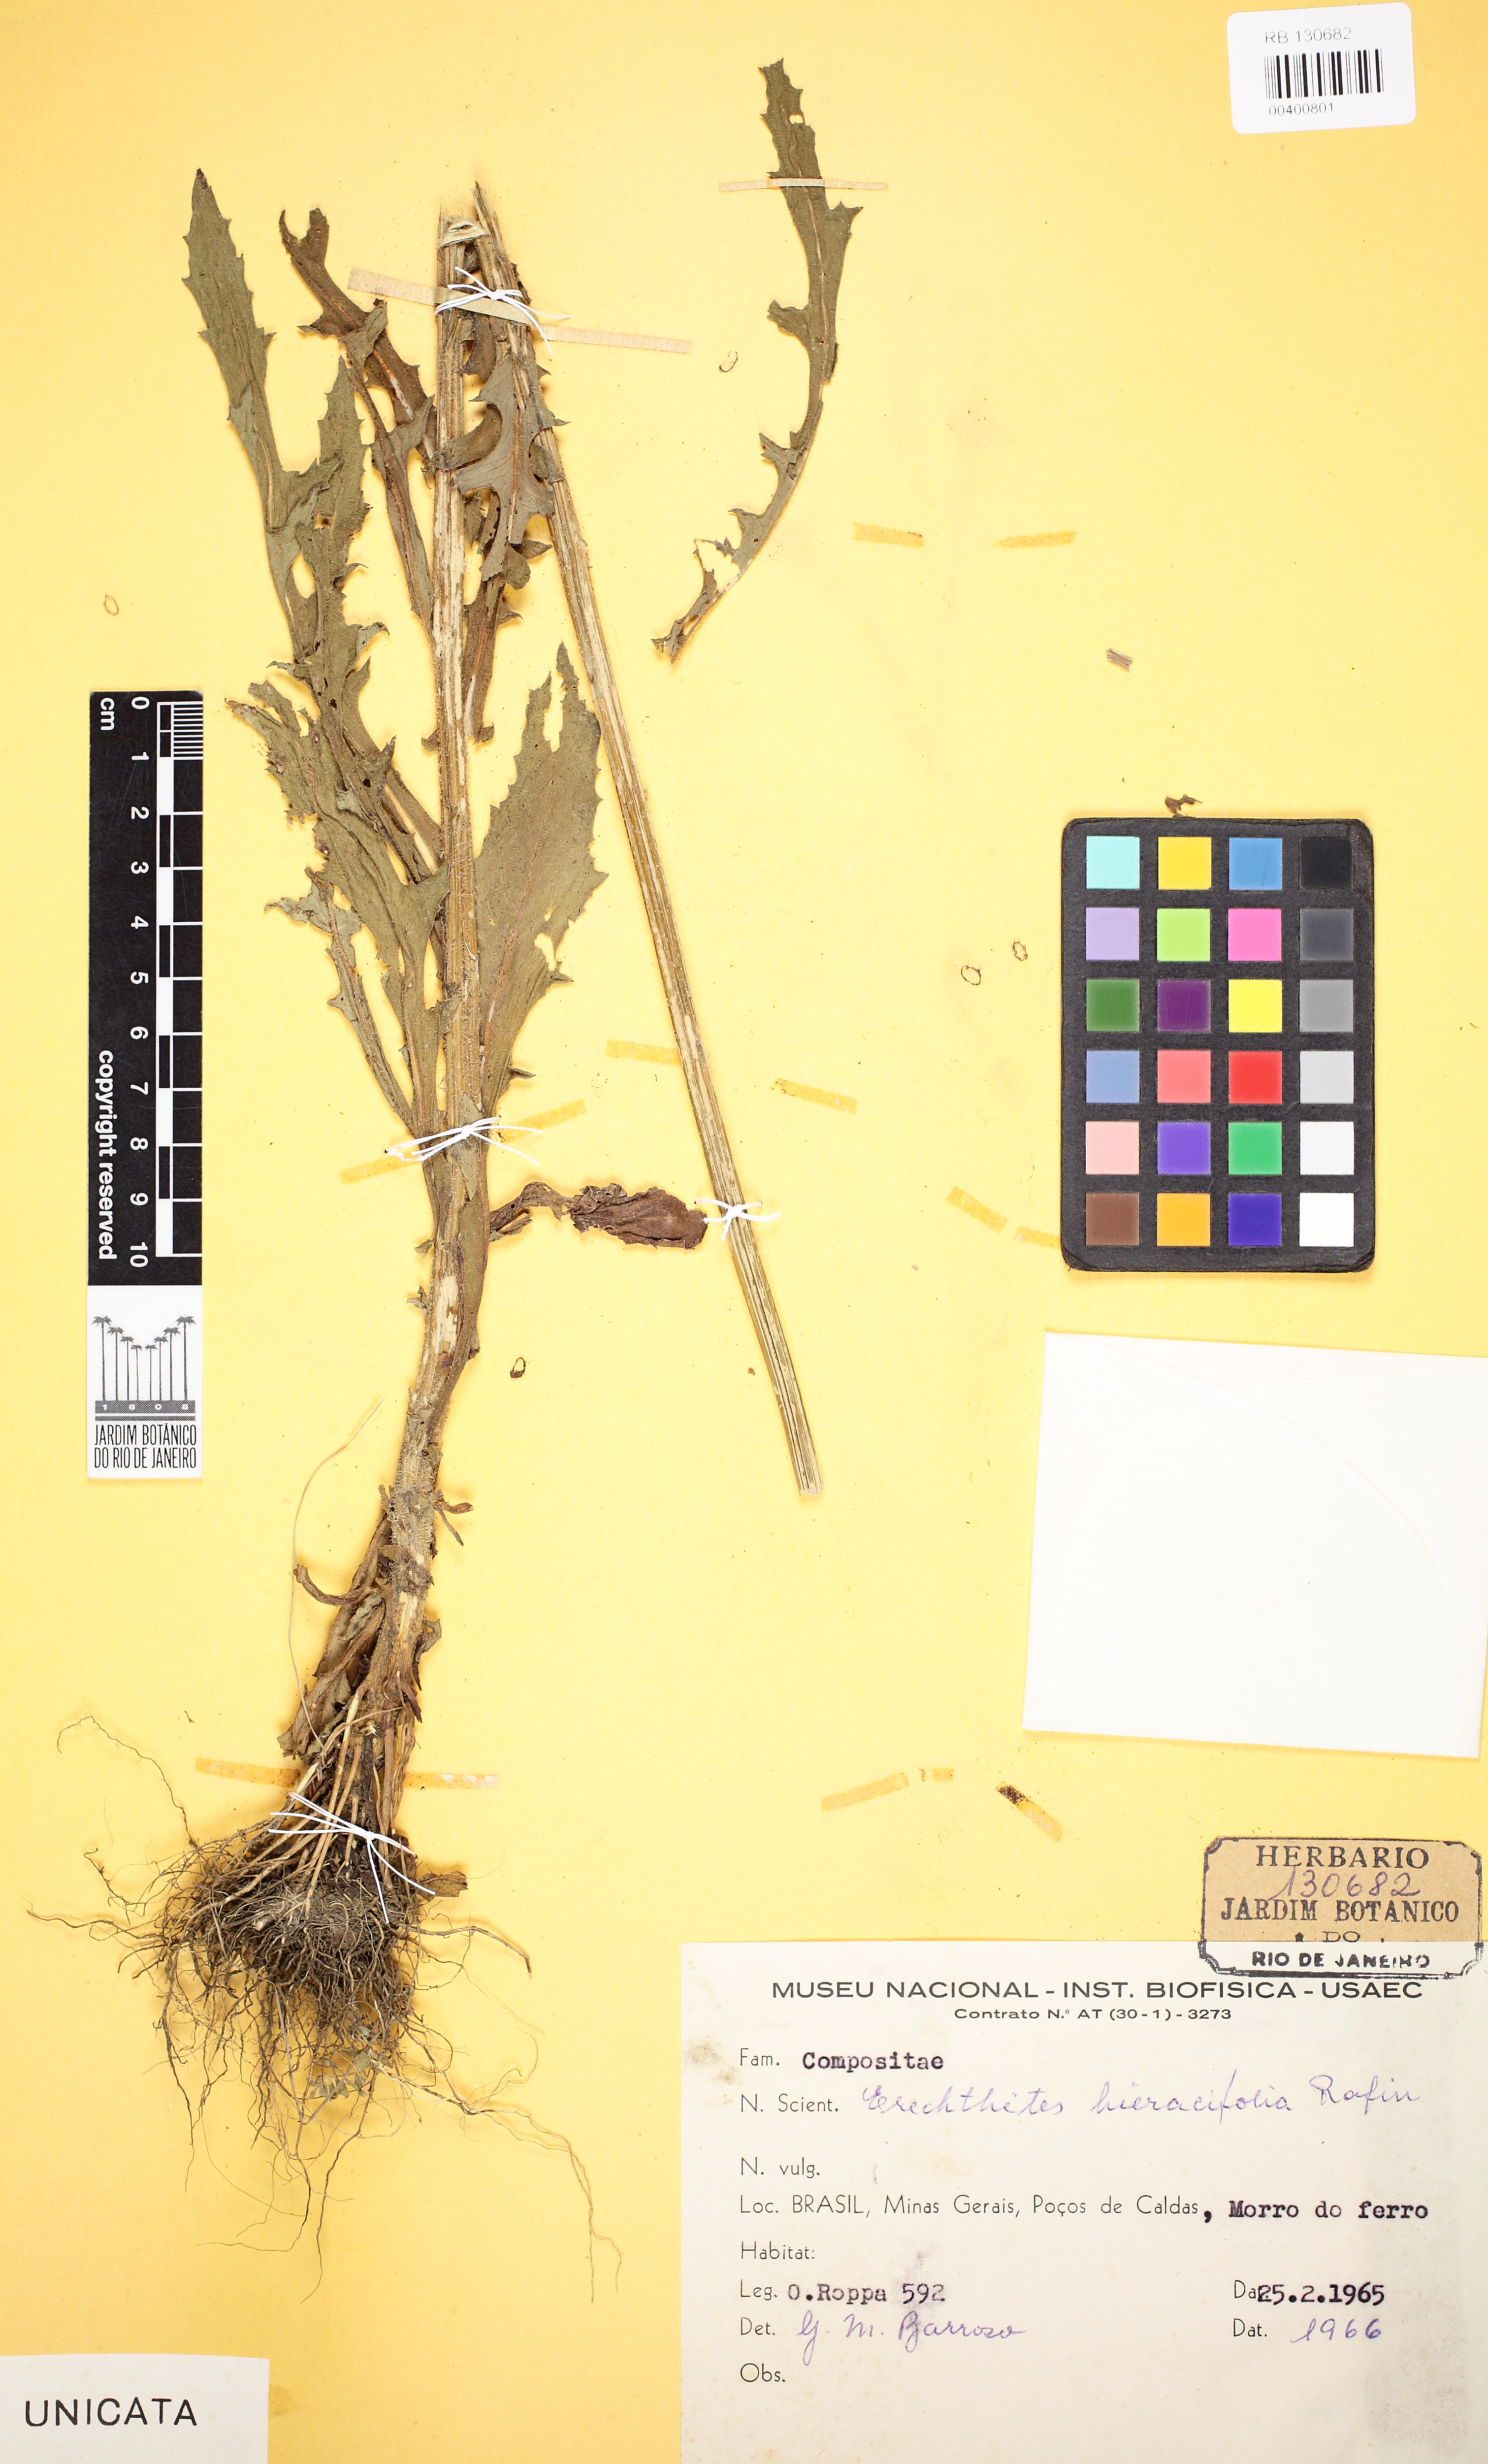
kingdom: Plantae
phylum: Tracheophyta
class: Magnoliopsida
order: Asterales
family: Asteraceae
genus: Erechtites
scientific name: Erechtites hieraciifolius
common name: American burnweed
